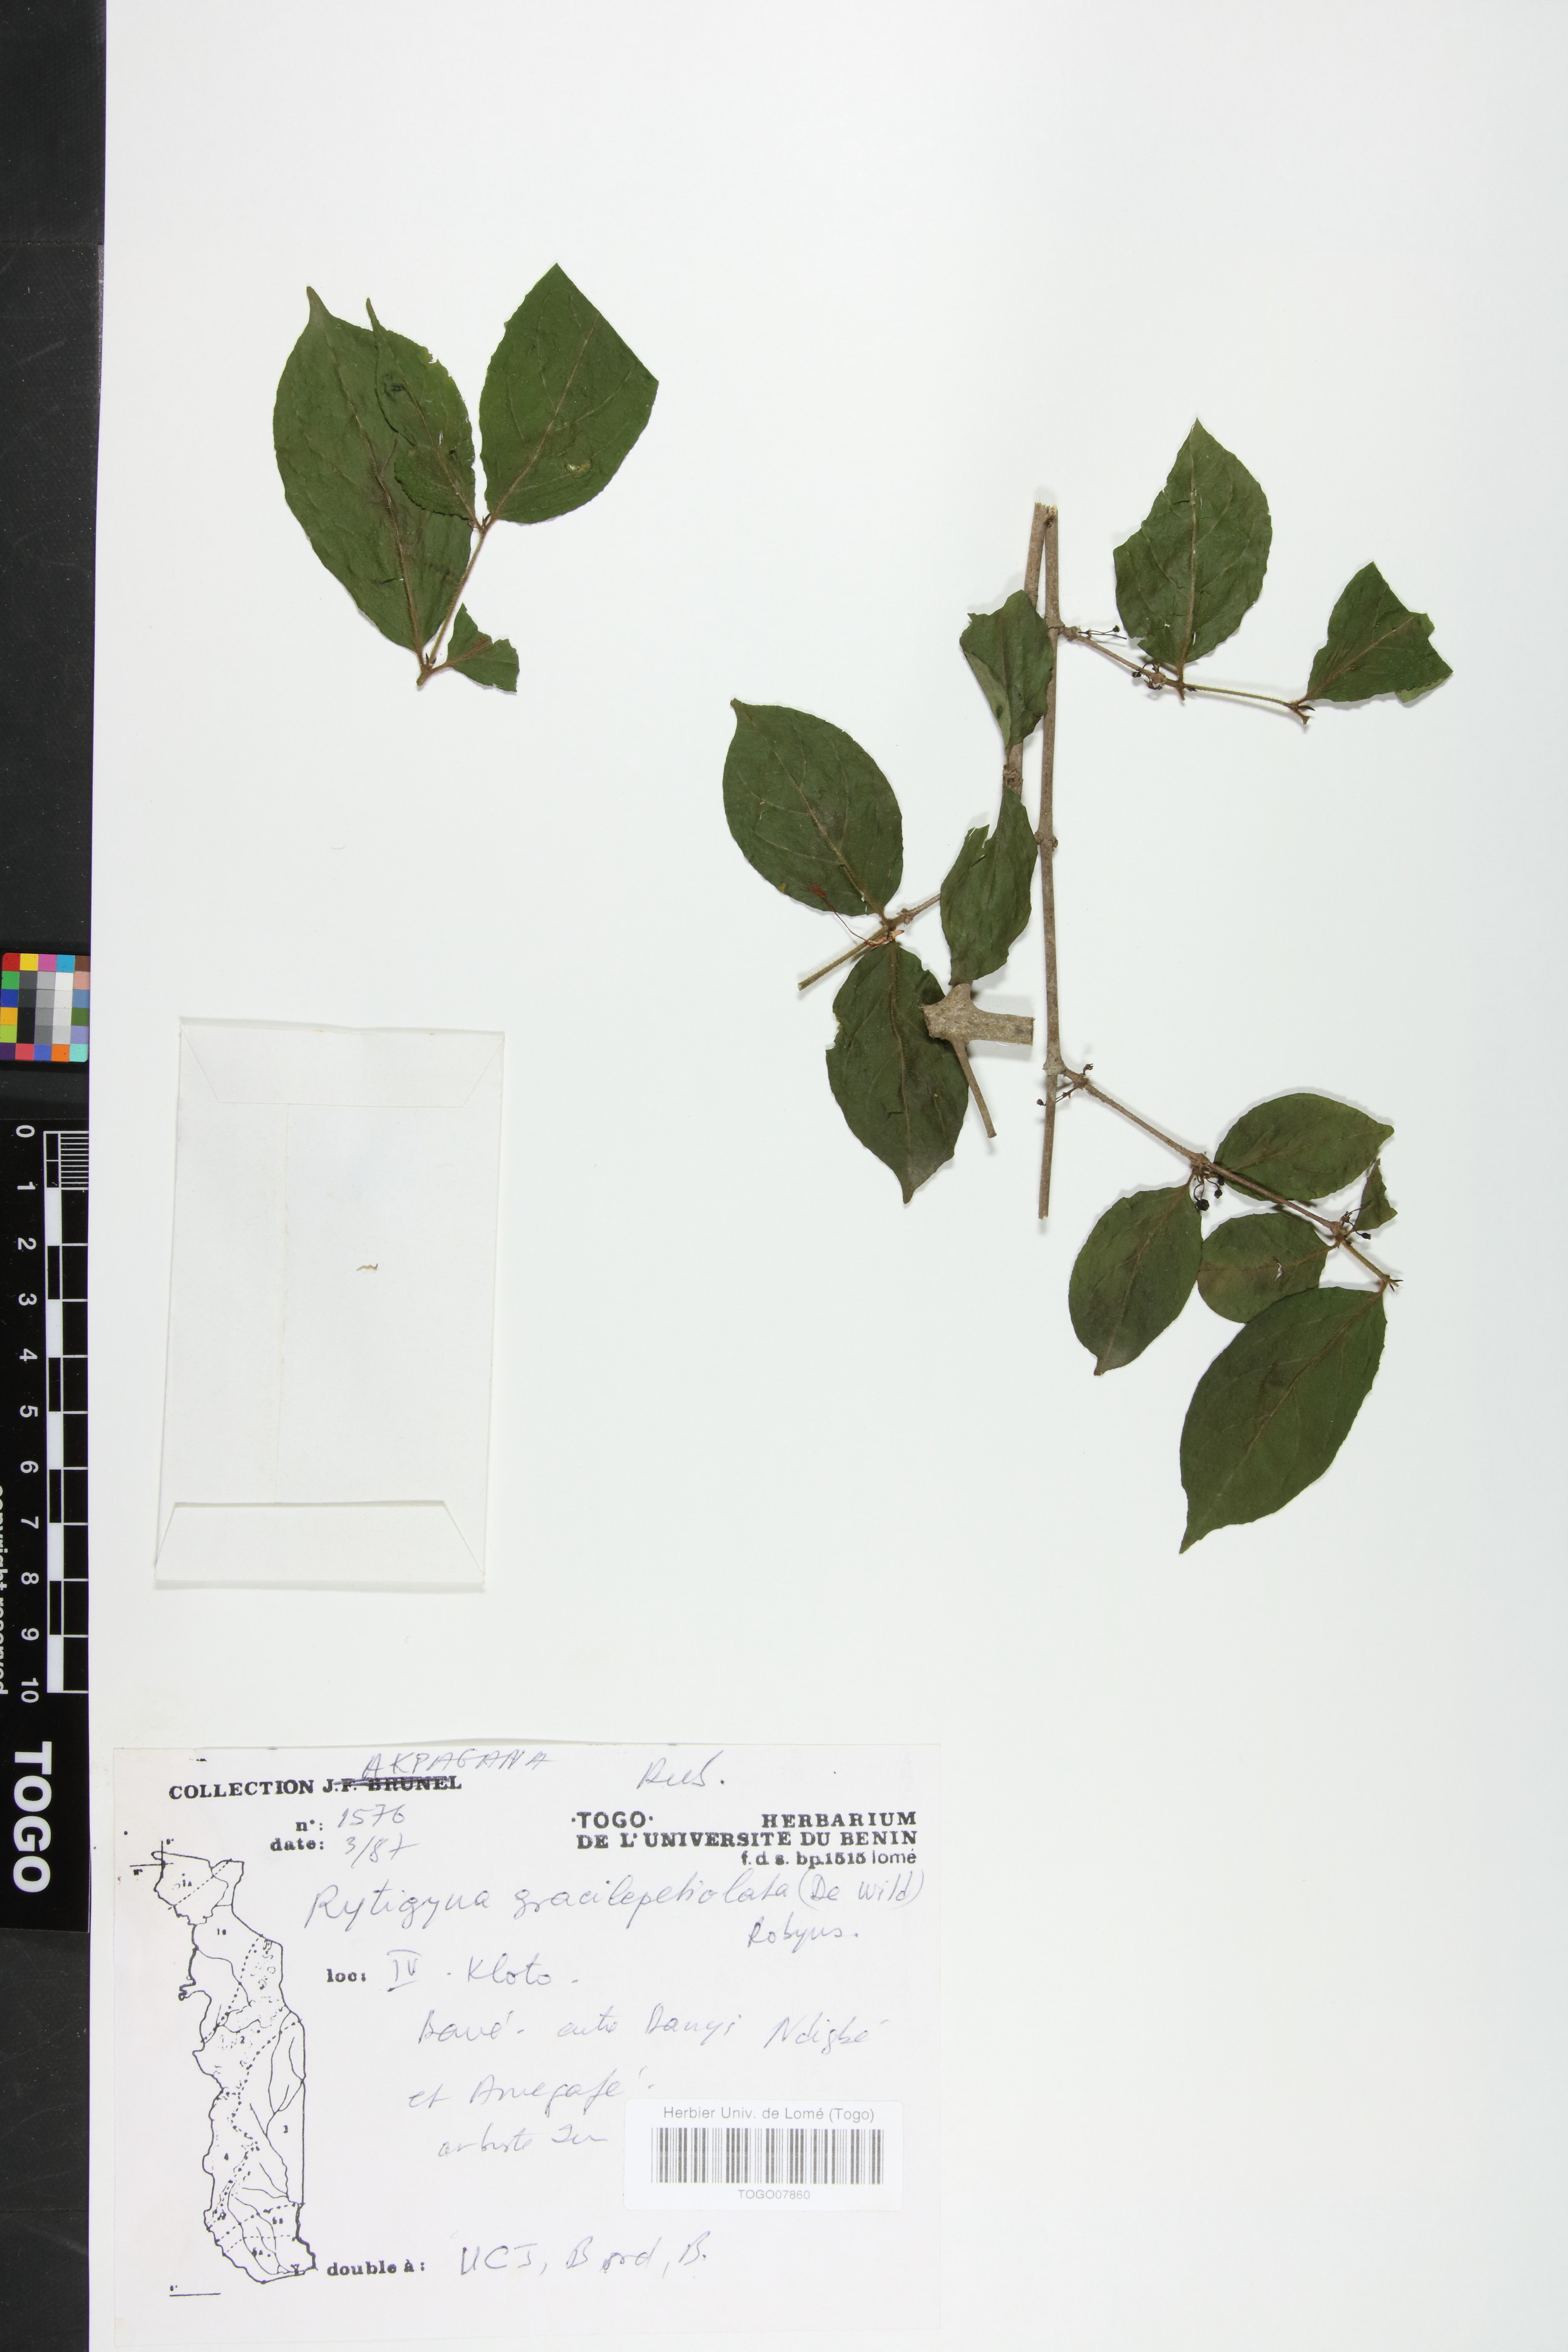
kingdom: Plantae
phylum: Tracheophyta
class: Magnoliopsida
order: Gentianales
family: Rubiaceae
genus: Rytigynia
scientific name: Rytigynia gracilipetiolata
